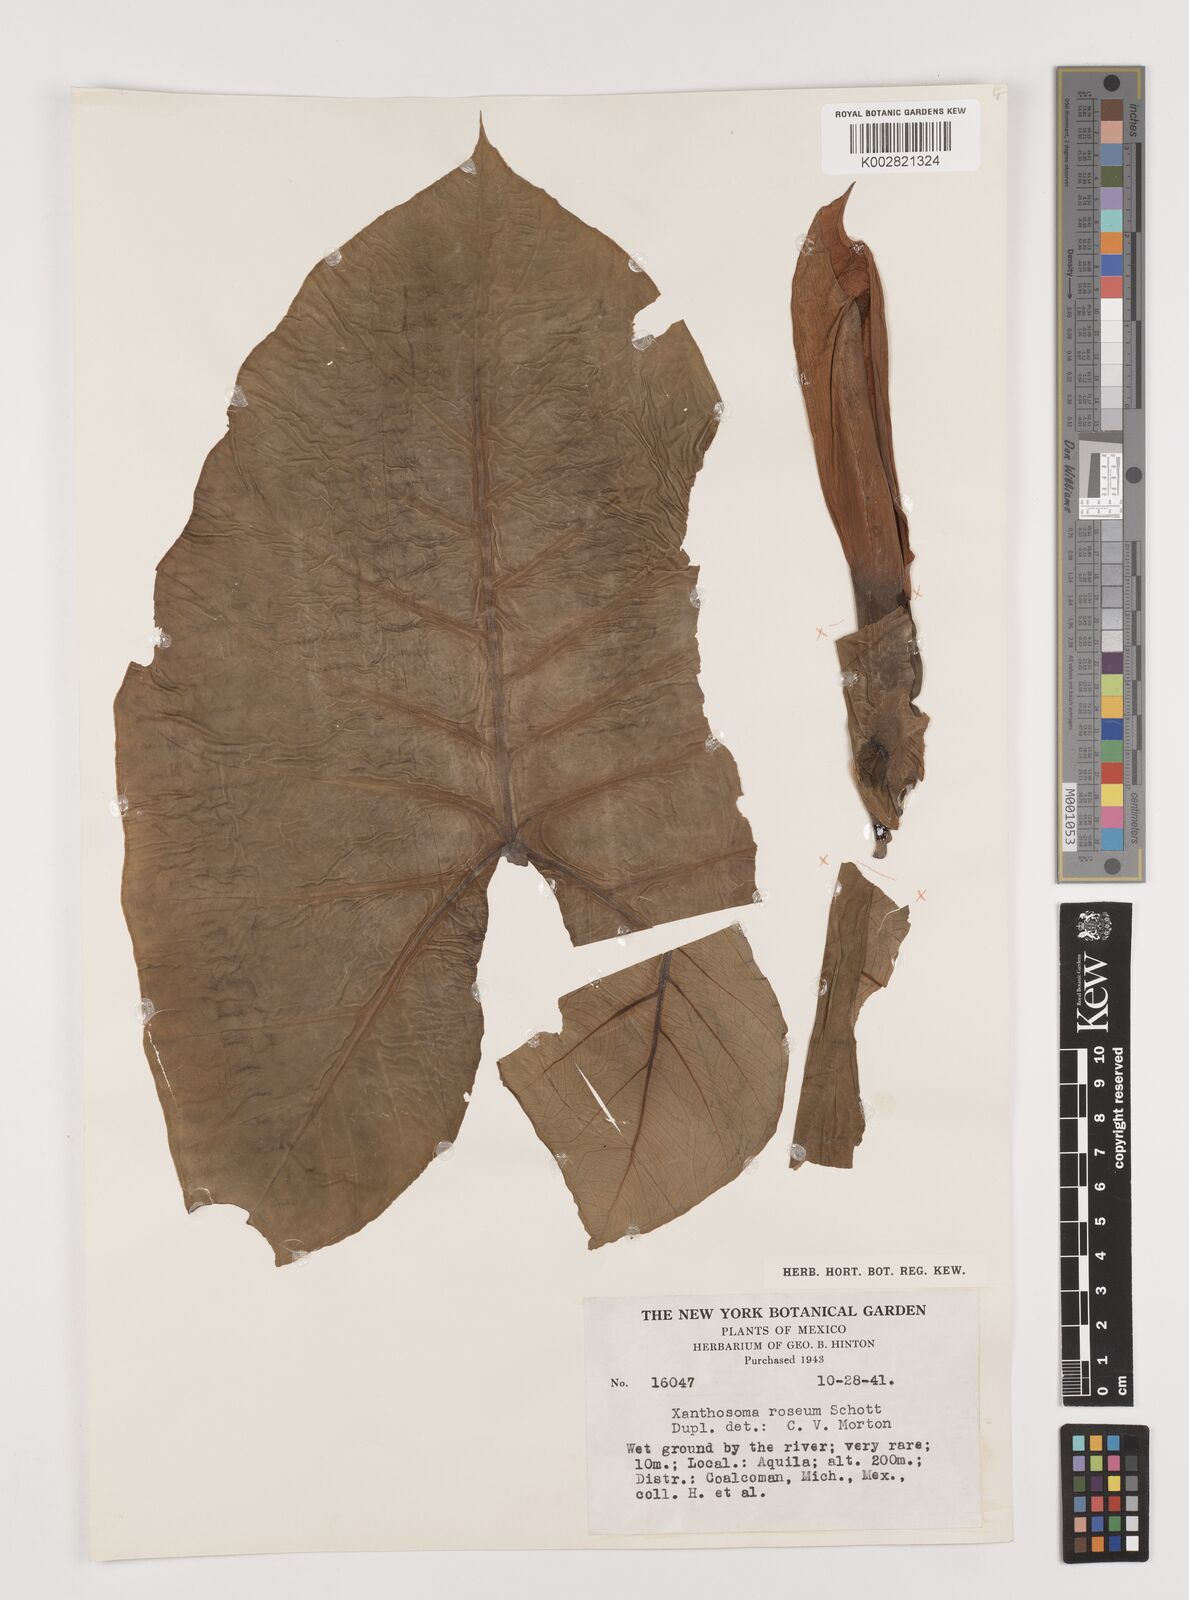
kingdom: Plantae
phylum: Tracheophyta
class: Liliopsida
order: Alismatales
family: Araceae
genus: Xanthosoma
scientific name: Xanthosoma sagittifolium
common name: Arrowleaf elephant's ear
